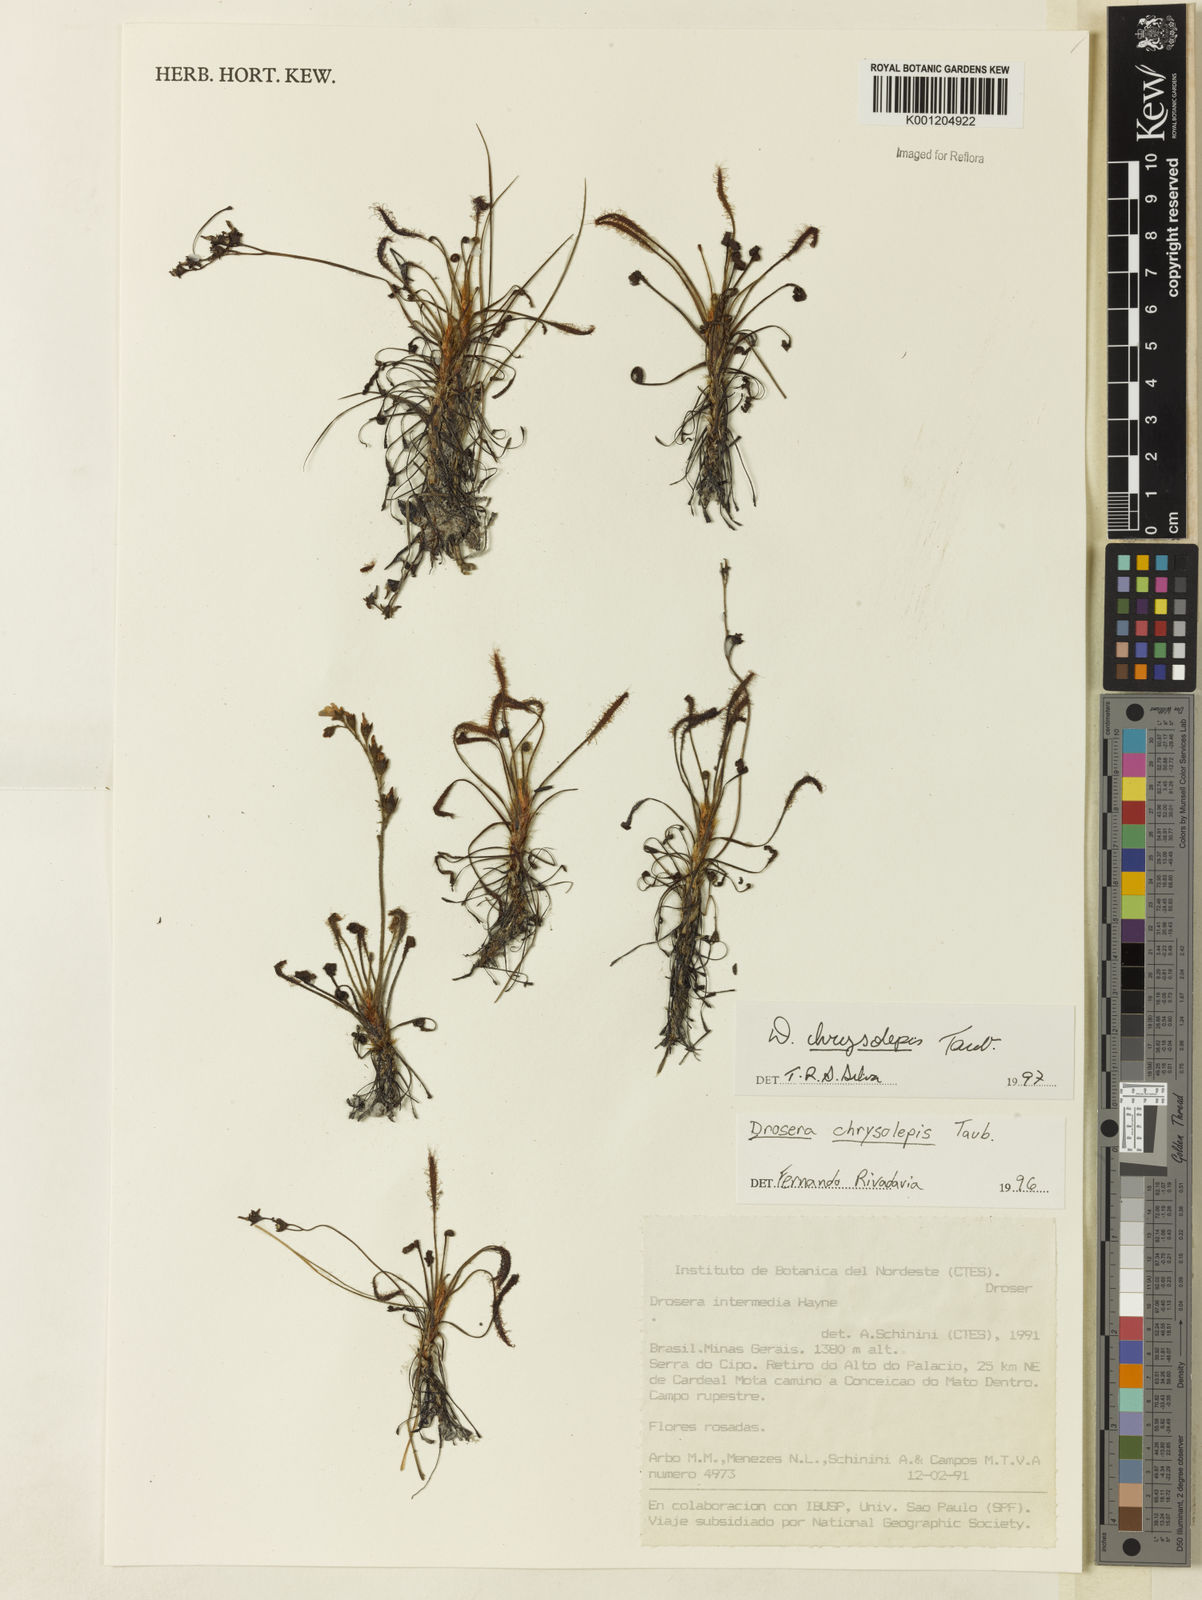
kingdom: Plantae
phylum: Tracheophyta
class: Magnoliopsida
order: Caryophyllales
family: Droseraceae
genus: Drosera
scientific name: Drosera chrysolepis
